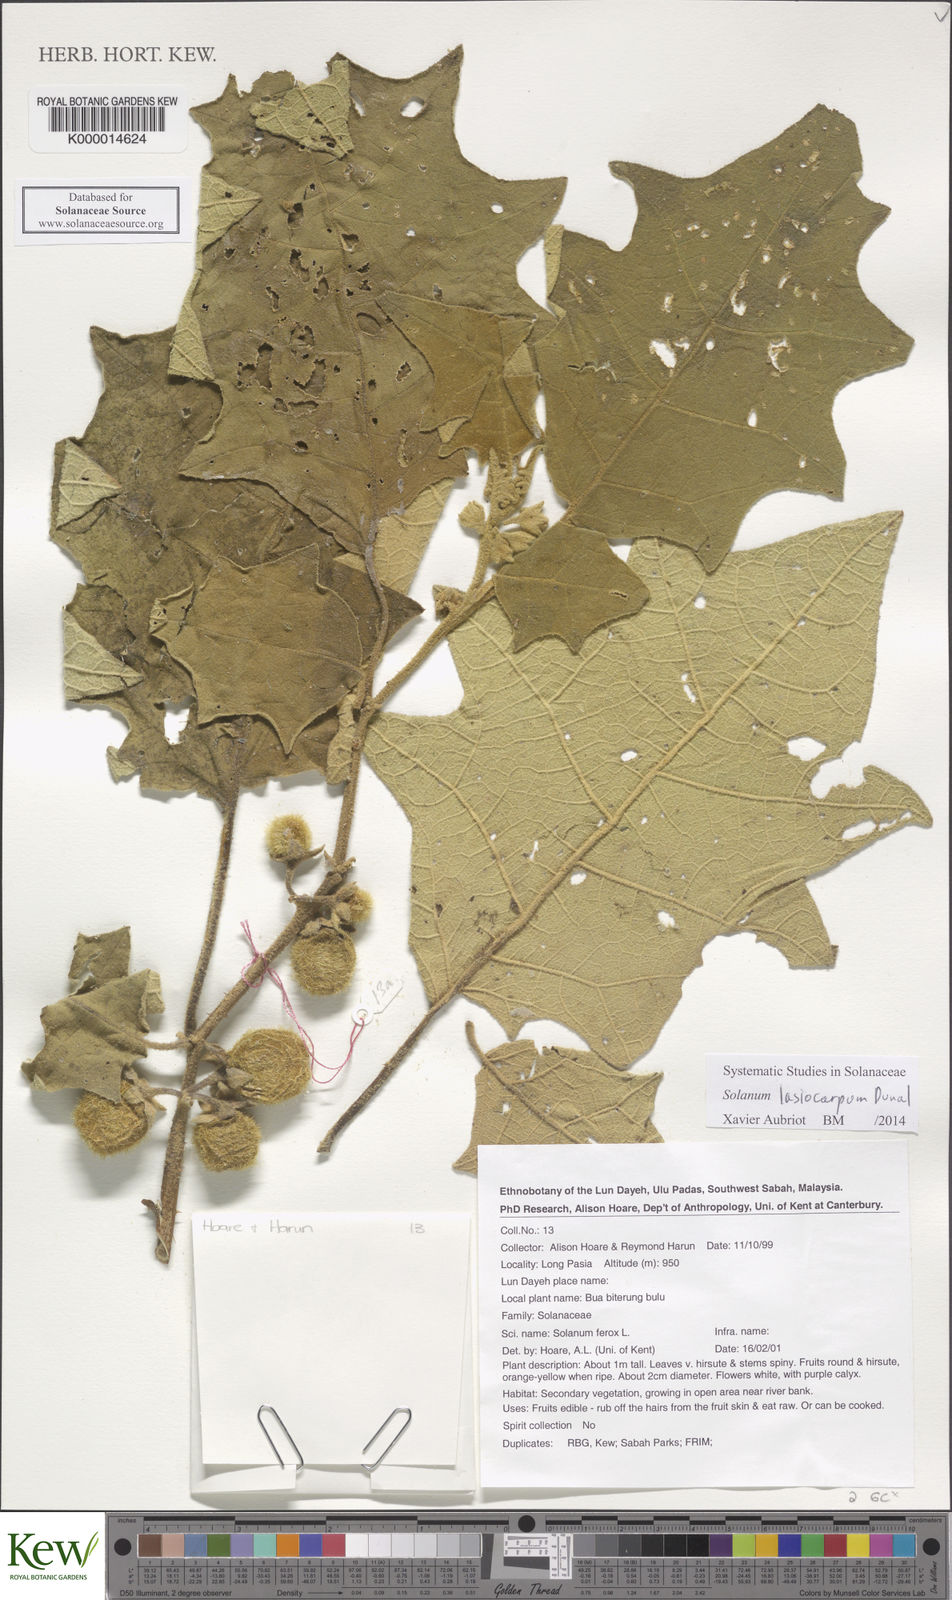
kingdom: Plantae
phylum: Tracheophyta
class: Magnoliopsida
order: Solanales
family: Solanaceae
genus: Solanum
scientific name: Solanum lasiocarpum
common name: Indian nightshade
